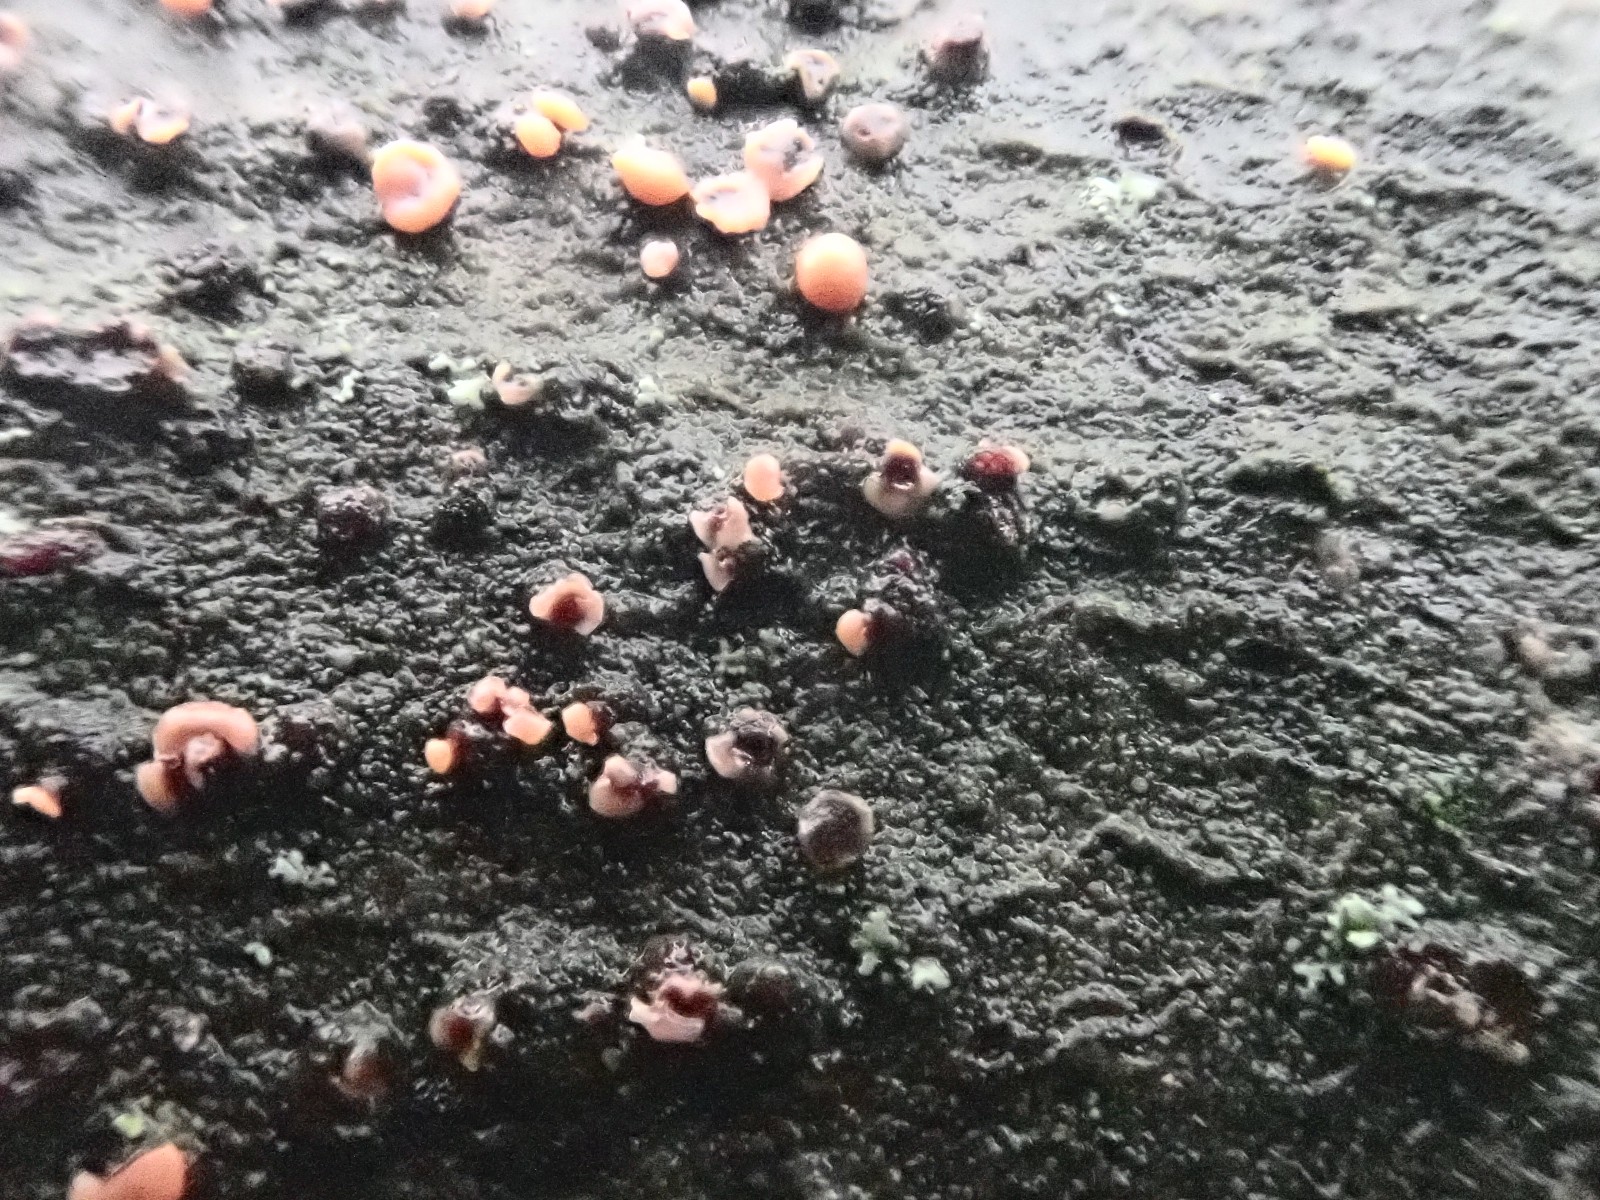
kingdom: Fungi
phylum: Ascomycota
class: Sordariomycetes
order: Hypocreales
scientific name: Hypocreales
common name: kødkerneordenen
